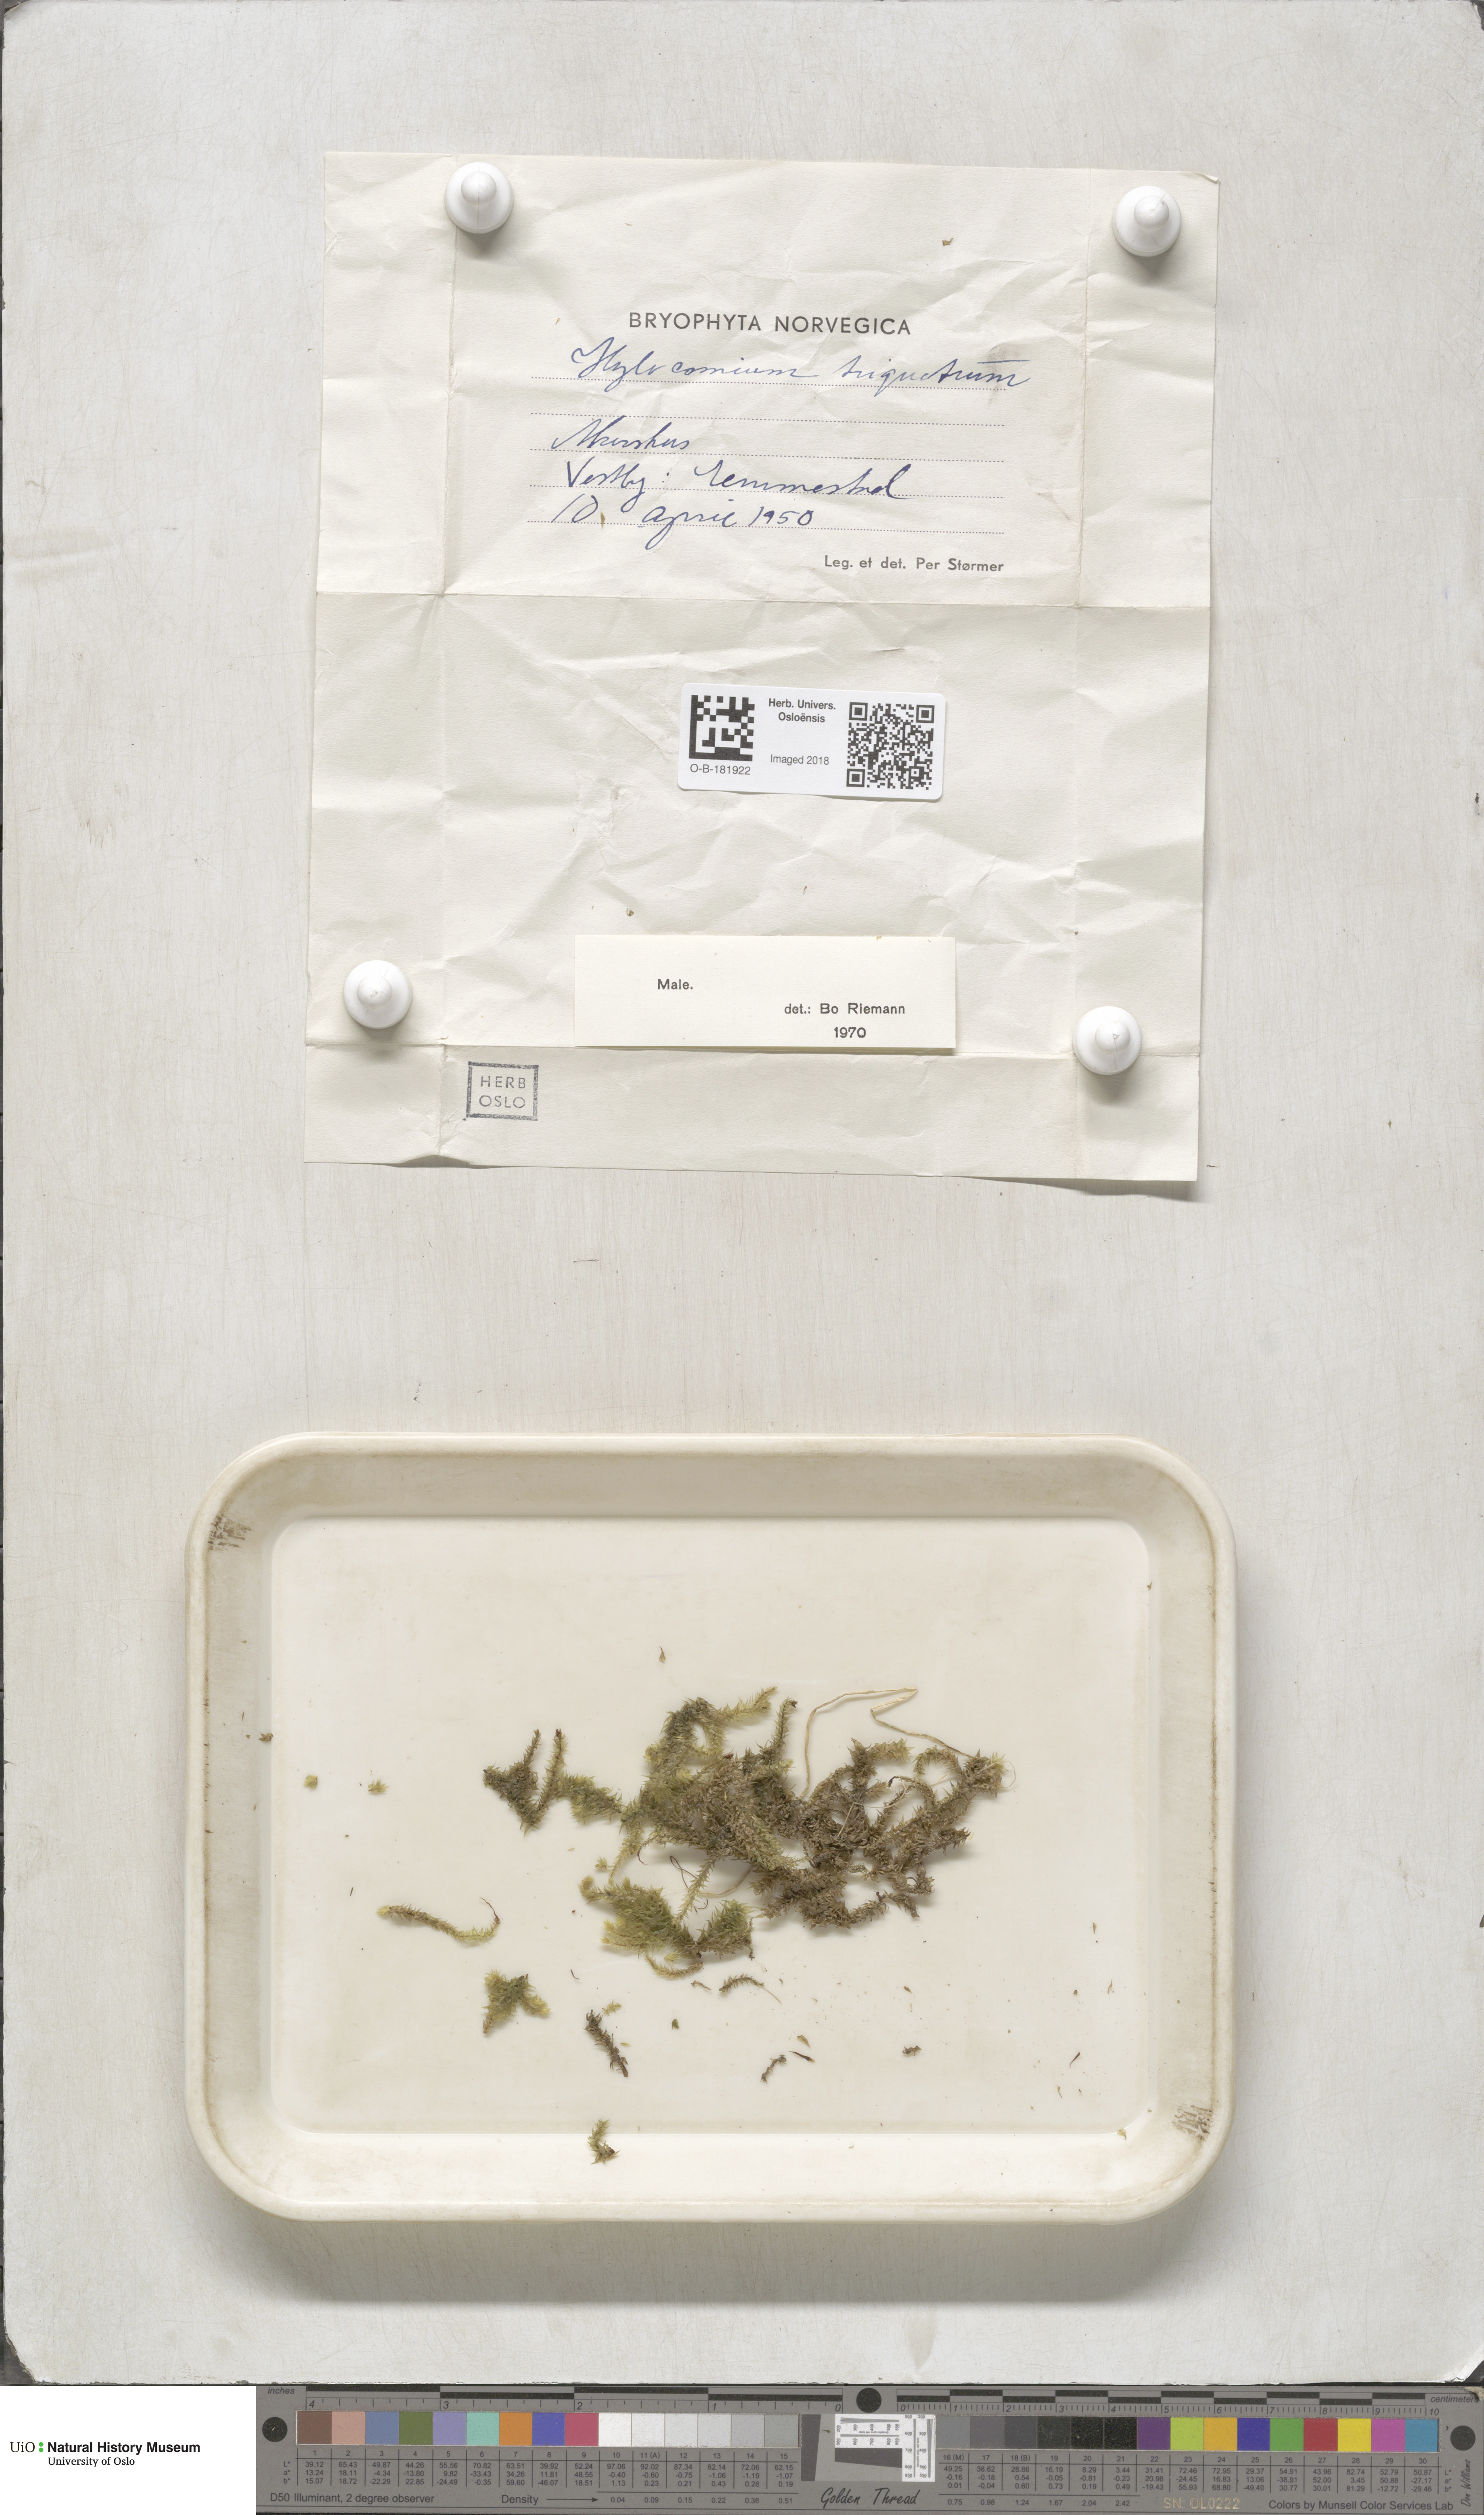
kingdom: Plantae
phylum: Bryophyta
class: Bryopsida
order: Hypnales
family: Hylocomiaceae
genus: Hylocomiadelphus
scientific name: Hylocomiadelphus triquetrus
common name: Rough goose neck moss
